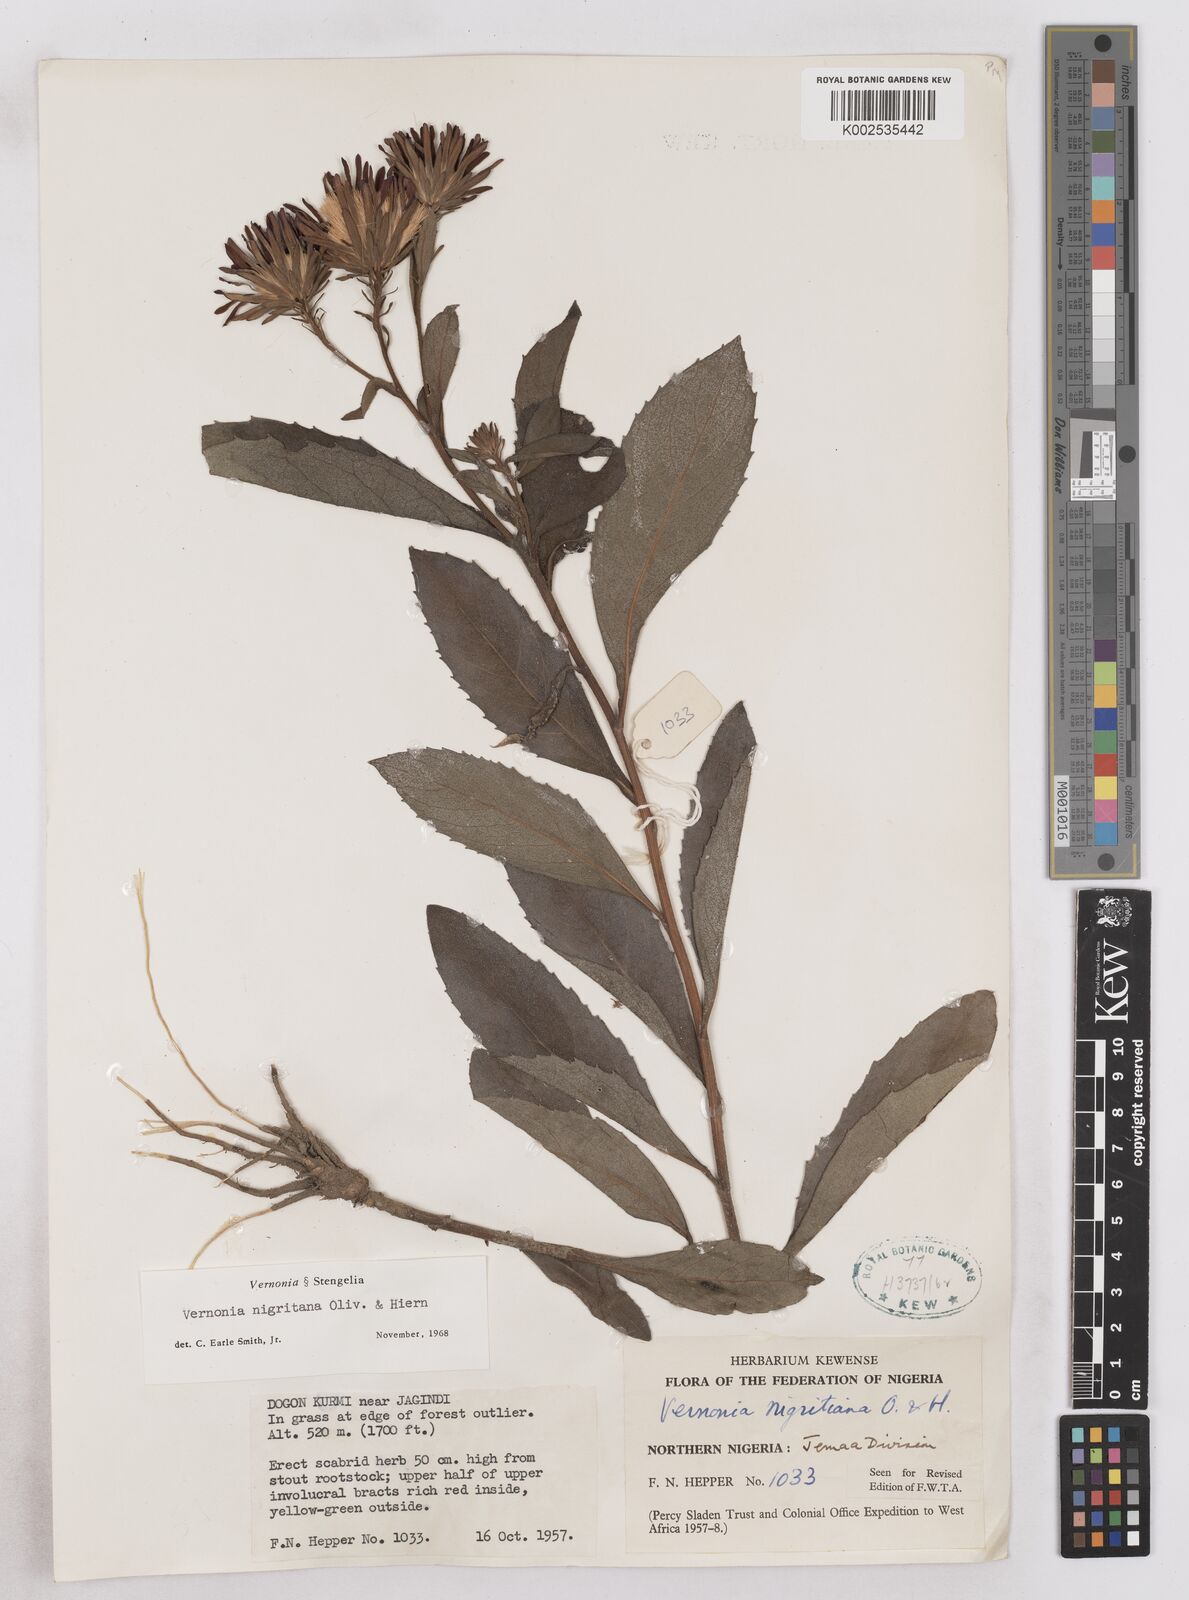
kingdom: Plantae
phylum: Tracheophyta
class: Magnoliopsida
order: Asterales
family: Asteraceae
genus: Linzia
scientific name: Linzia nigritiana
